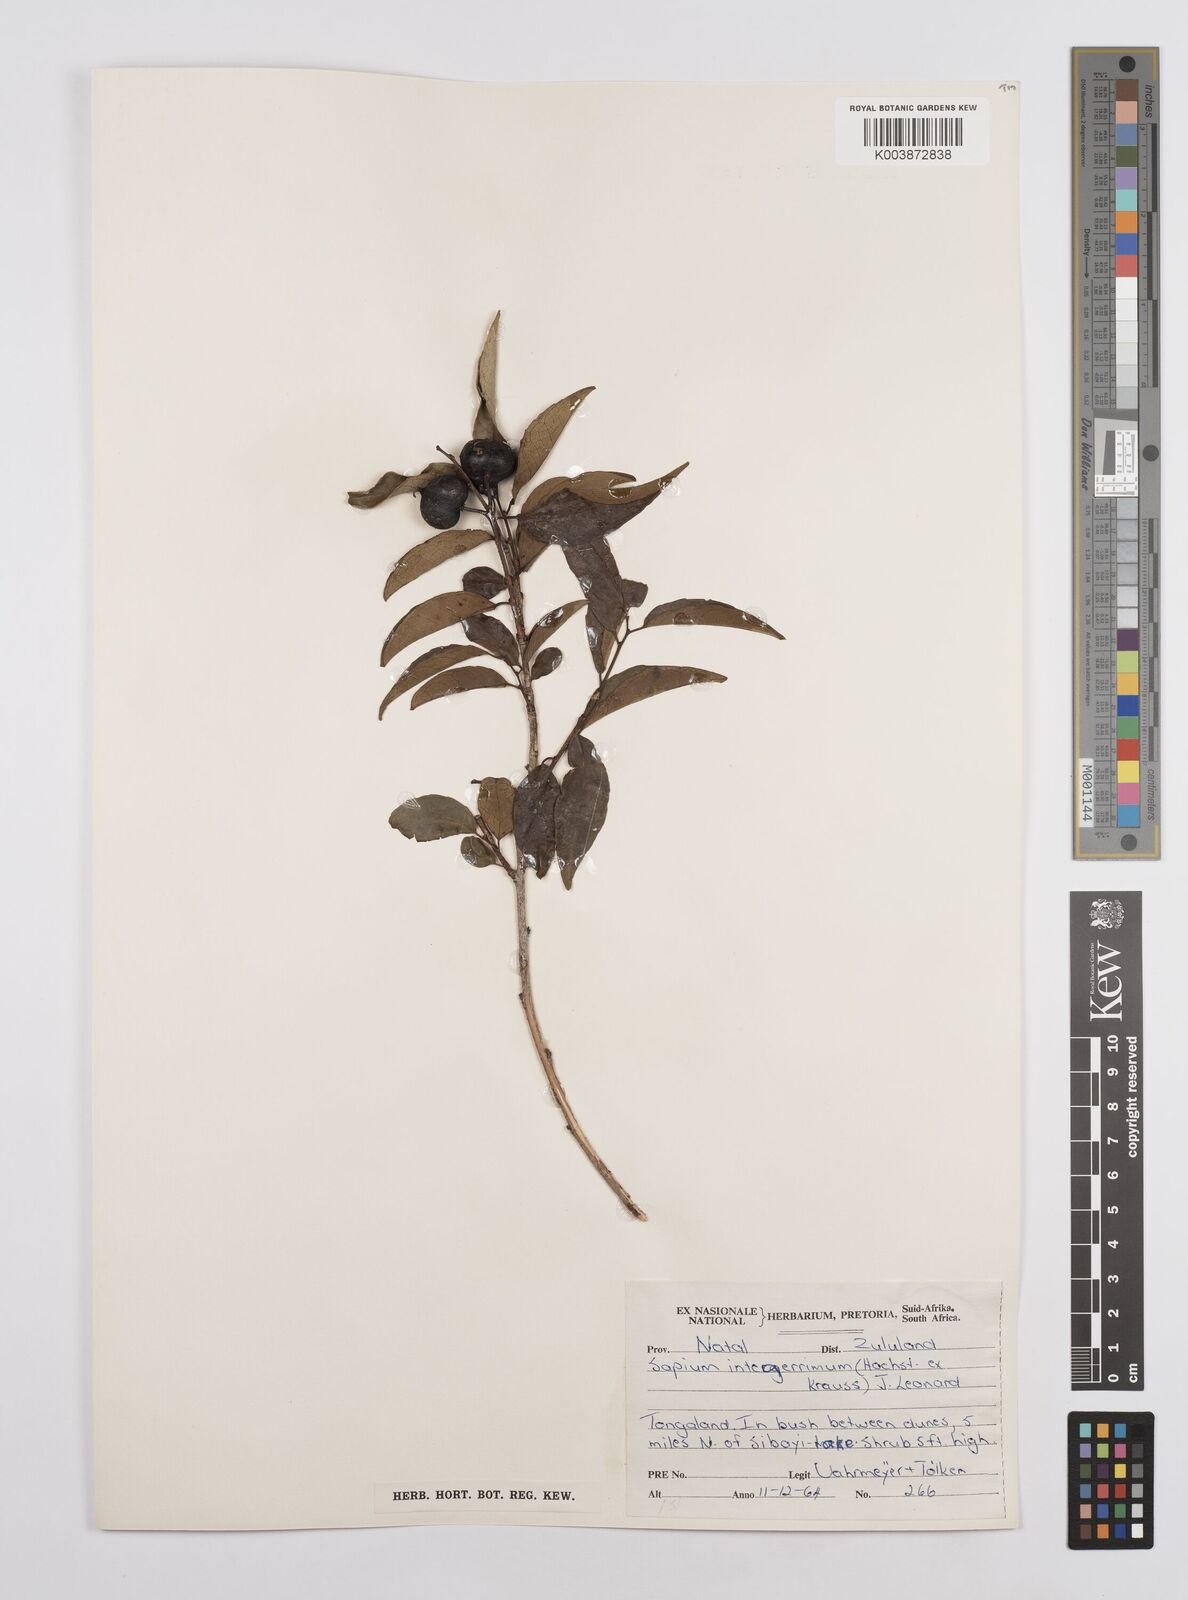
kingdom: Plantae
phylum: Tracheophyta
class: Magnoliopsida
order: Malpighiales
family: Euphorbiaceae
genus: Sclerocroton
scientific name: Sclerocroton integerrimus
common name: Duiker berry
